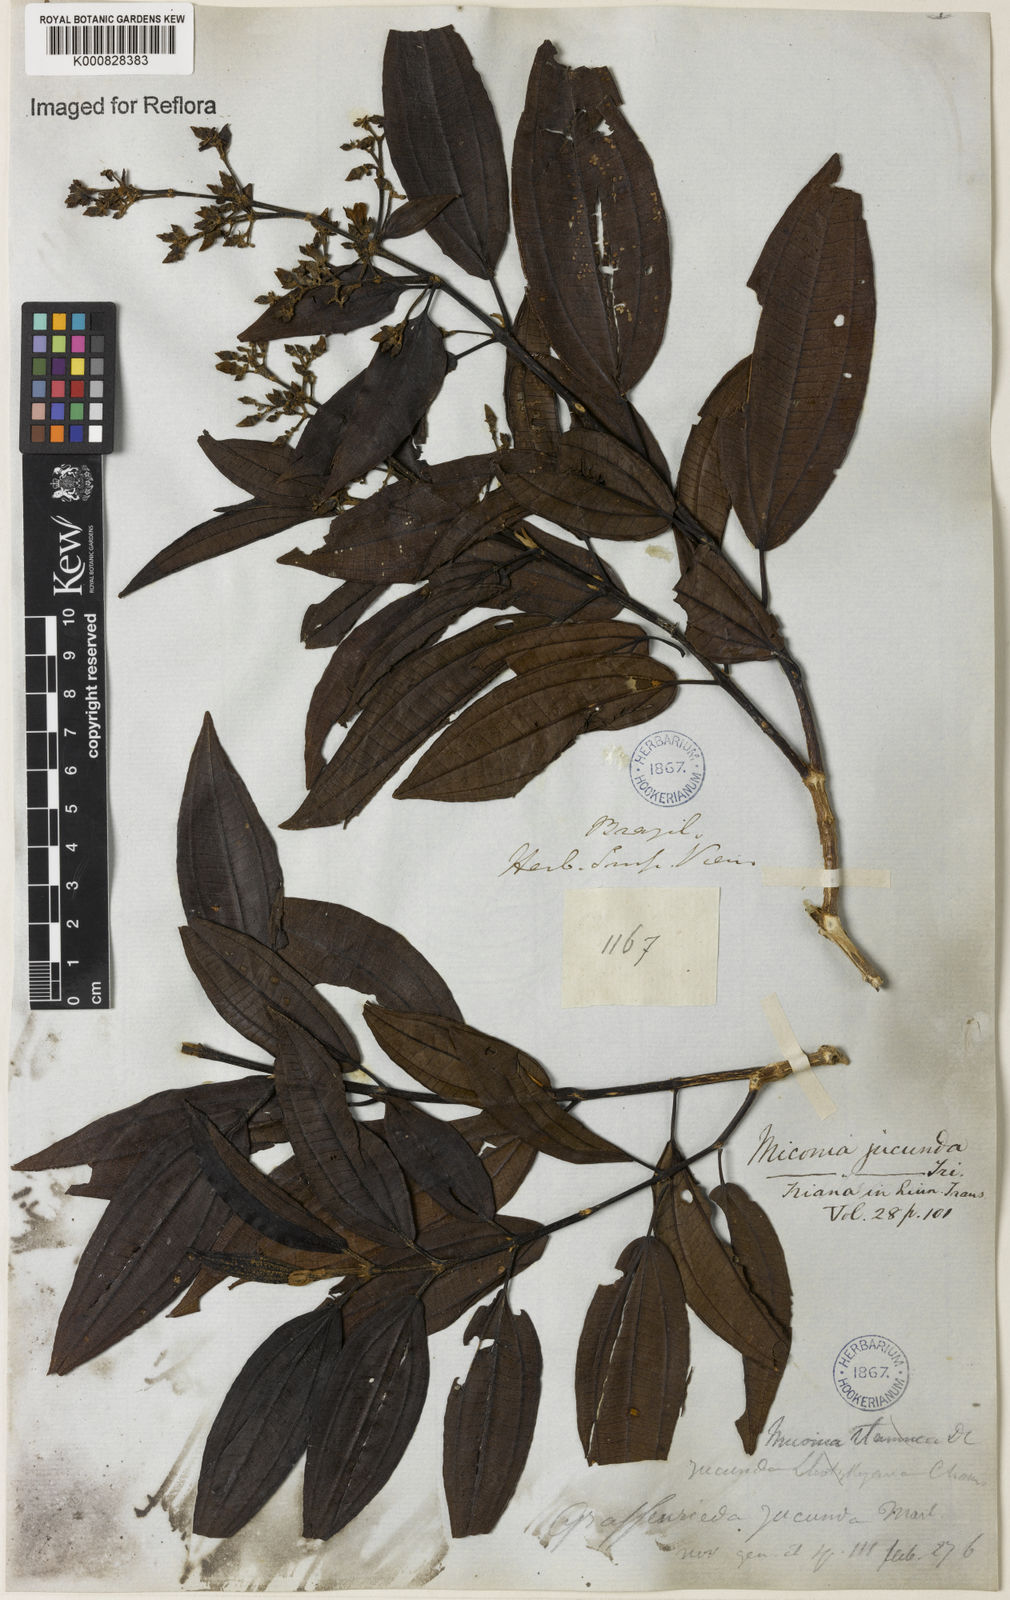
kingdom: Plantae
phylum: Tracheophyta
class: Magnoliopsida
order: Myrtales
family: Melastomataceae
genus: Miconia
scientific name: Miconia jucunda
